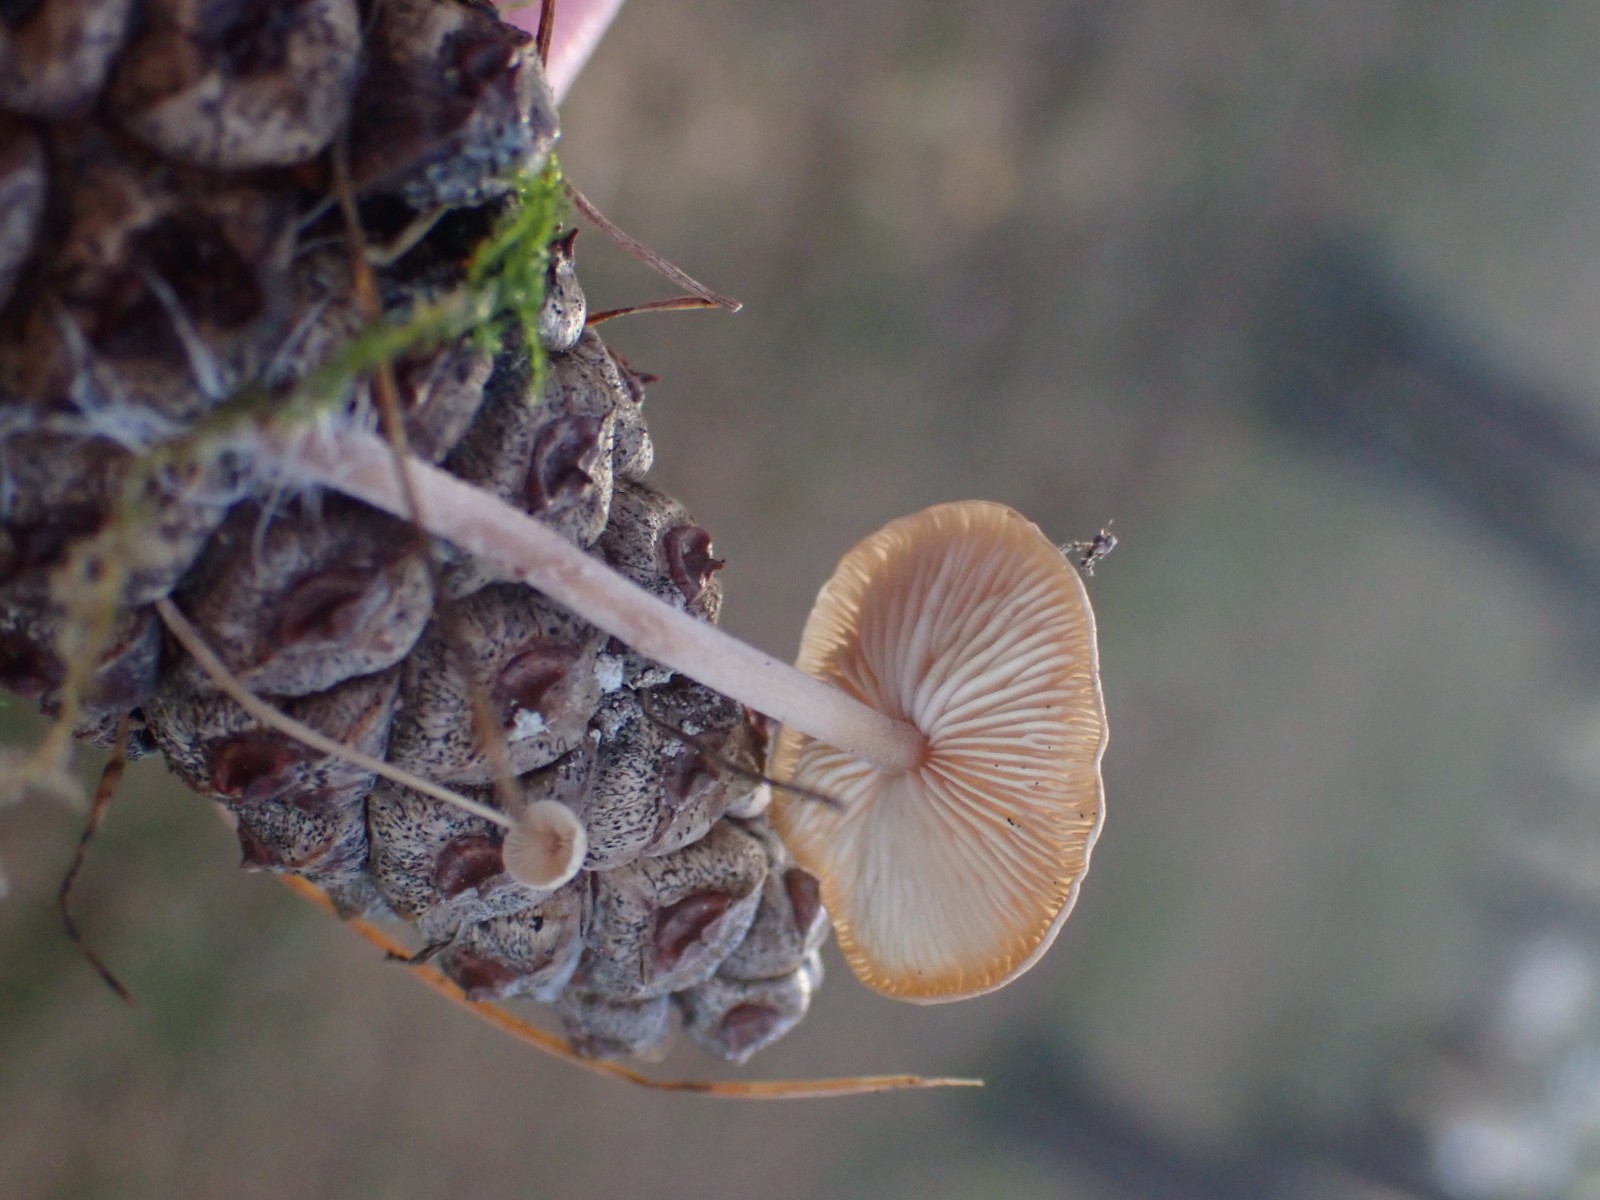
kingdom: Fungi
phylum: Basidiomycota
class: Agaricomycetes
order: Agaricales
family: Marasmiaceae
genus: Baeospora
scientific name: Baeospora myosura
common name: koglebruskhat
